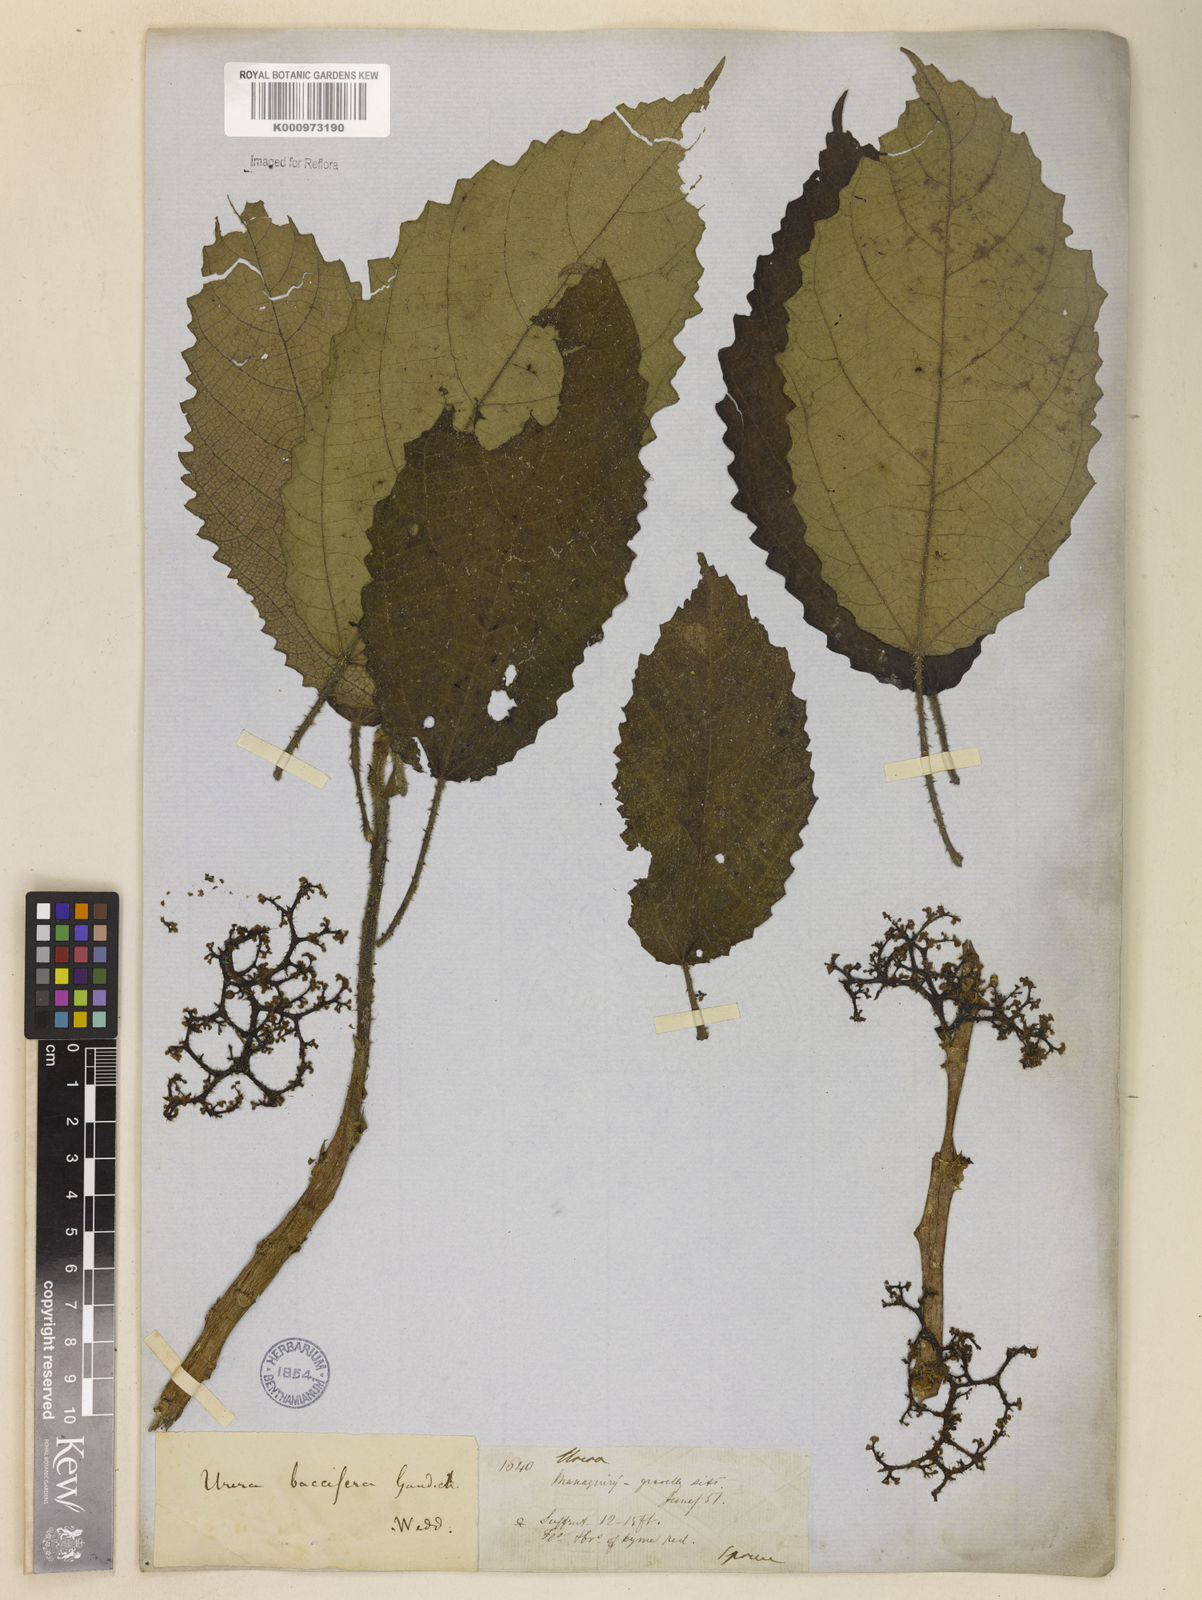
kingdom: Plantae
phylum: Tracheophyta
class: Magnoliopsida
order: Rosales
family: Urticaceae
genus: Urera
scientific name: Urera baccifera
